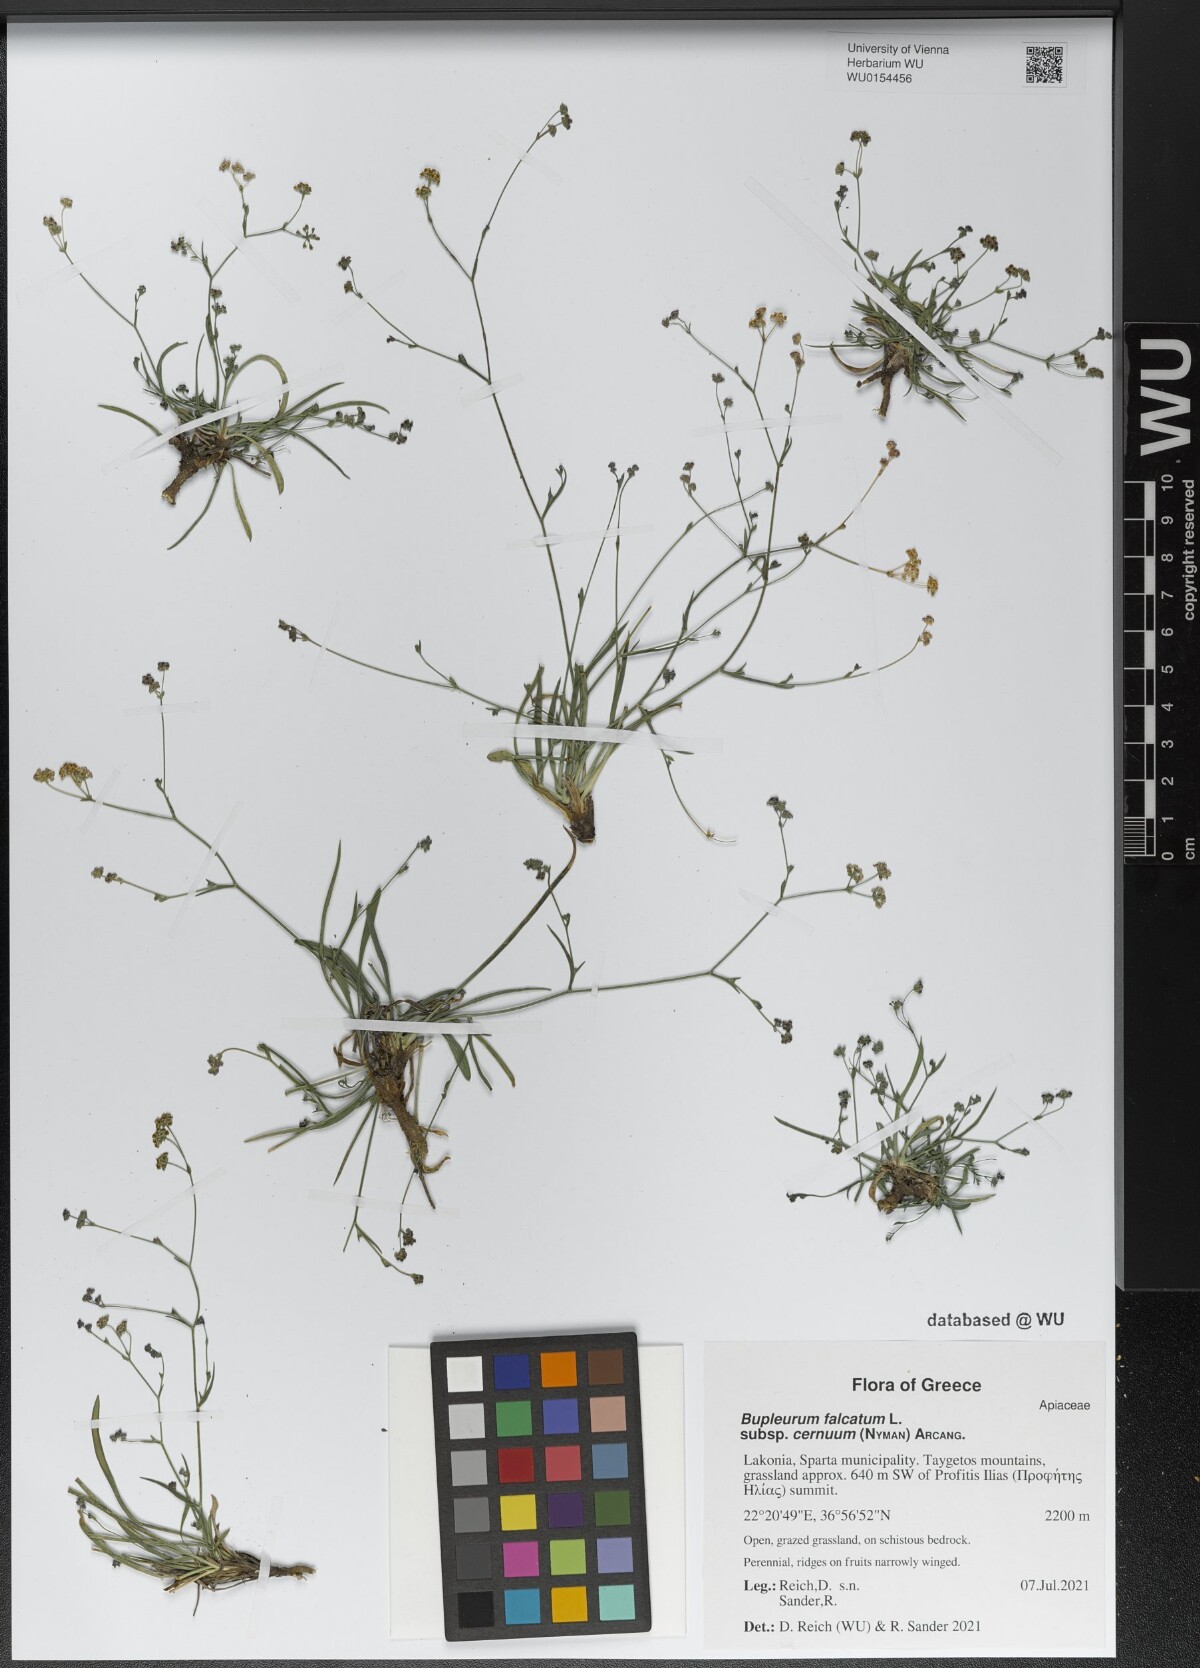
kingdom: Plantae
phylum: Tracheophyta
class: Magnoliopsida
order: Apiales
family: Apiaceae
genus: Bupleurum
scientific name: Bupleurum exaltatum
